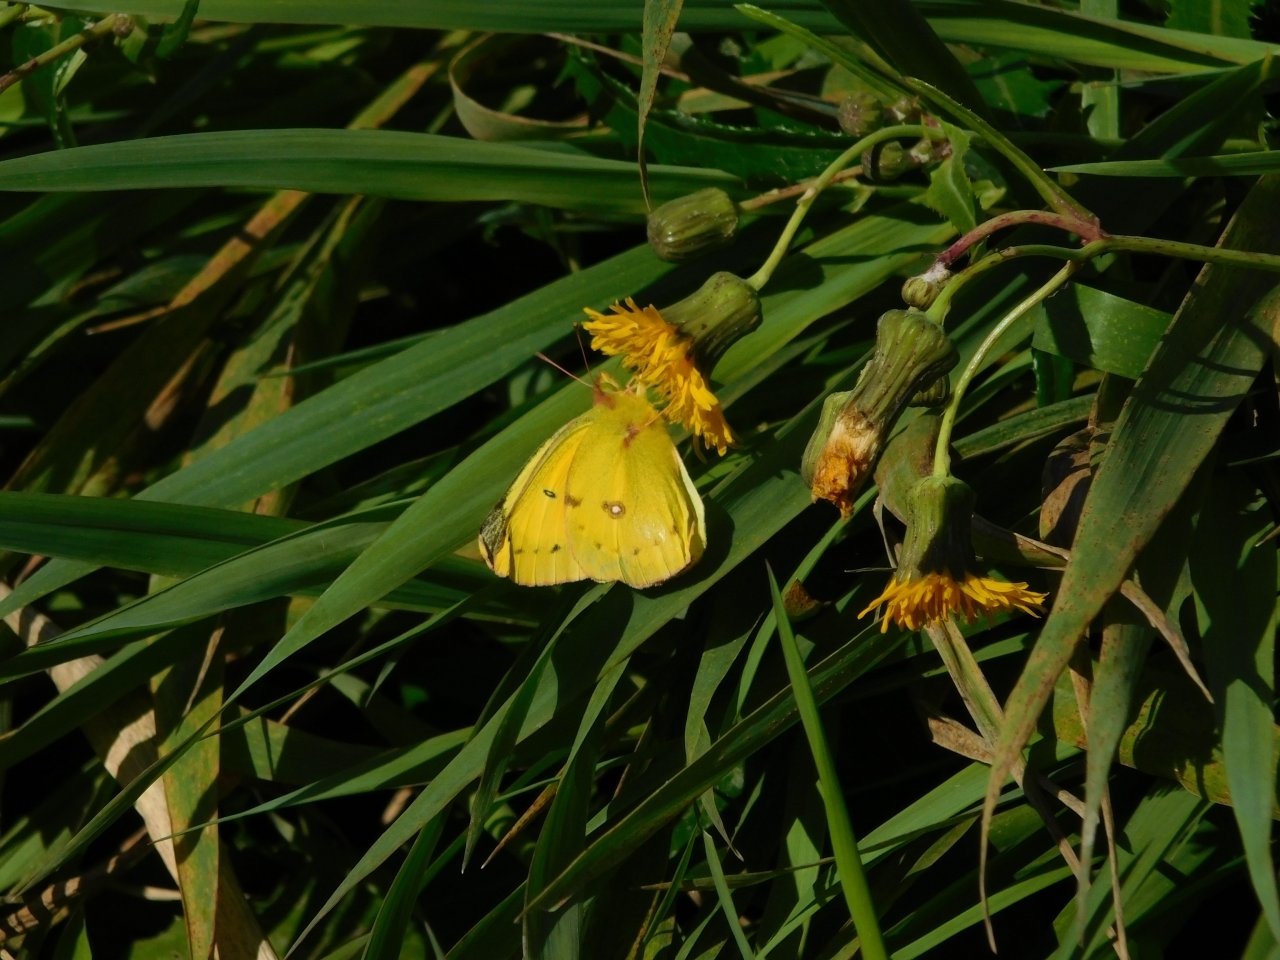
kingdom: Animalia
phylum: Arthropoda
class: Insecta
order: Lepidoptera
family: Pieridae
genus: Colias
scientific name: Colias eurytheme
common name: Orange Sulphur
